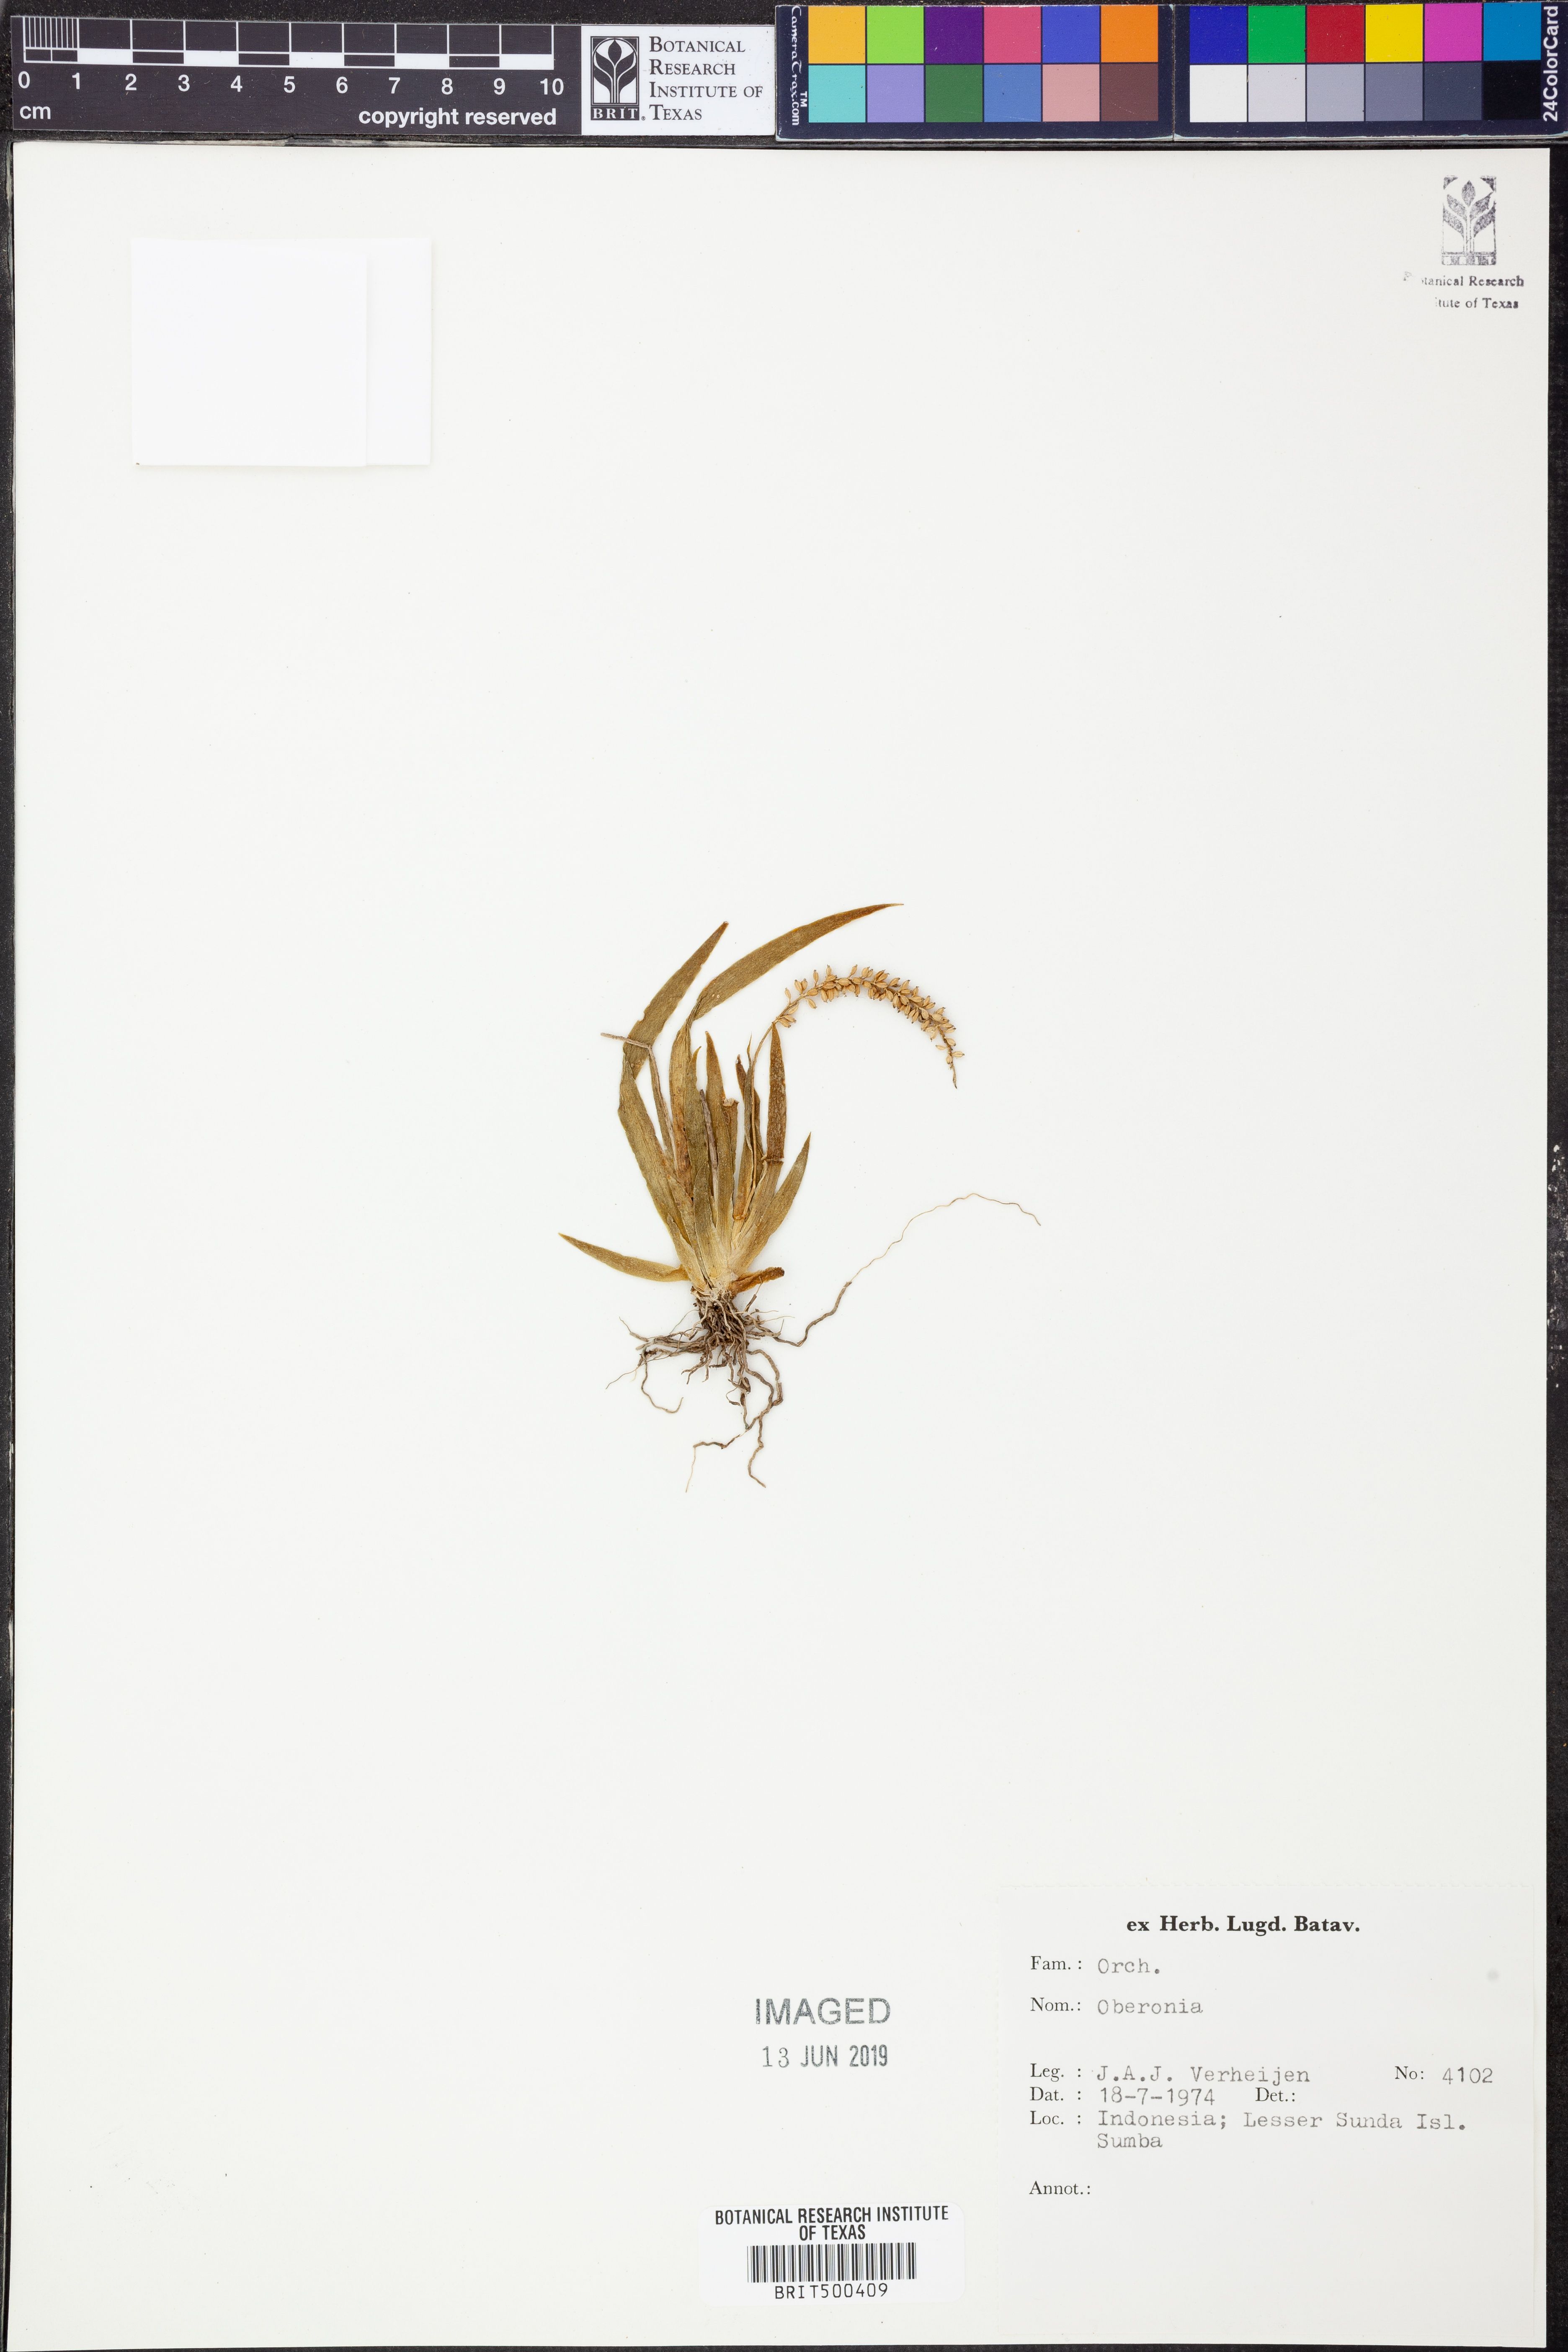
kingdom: Plantae
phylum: Tracheophyta
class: Liliopsida
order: Asparagales
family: Orchidaceae
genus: Oberonia
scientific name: Oberonia
